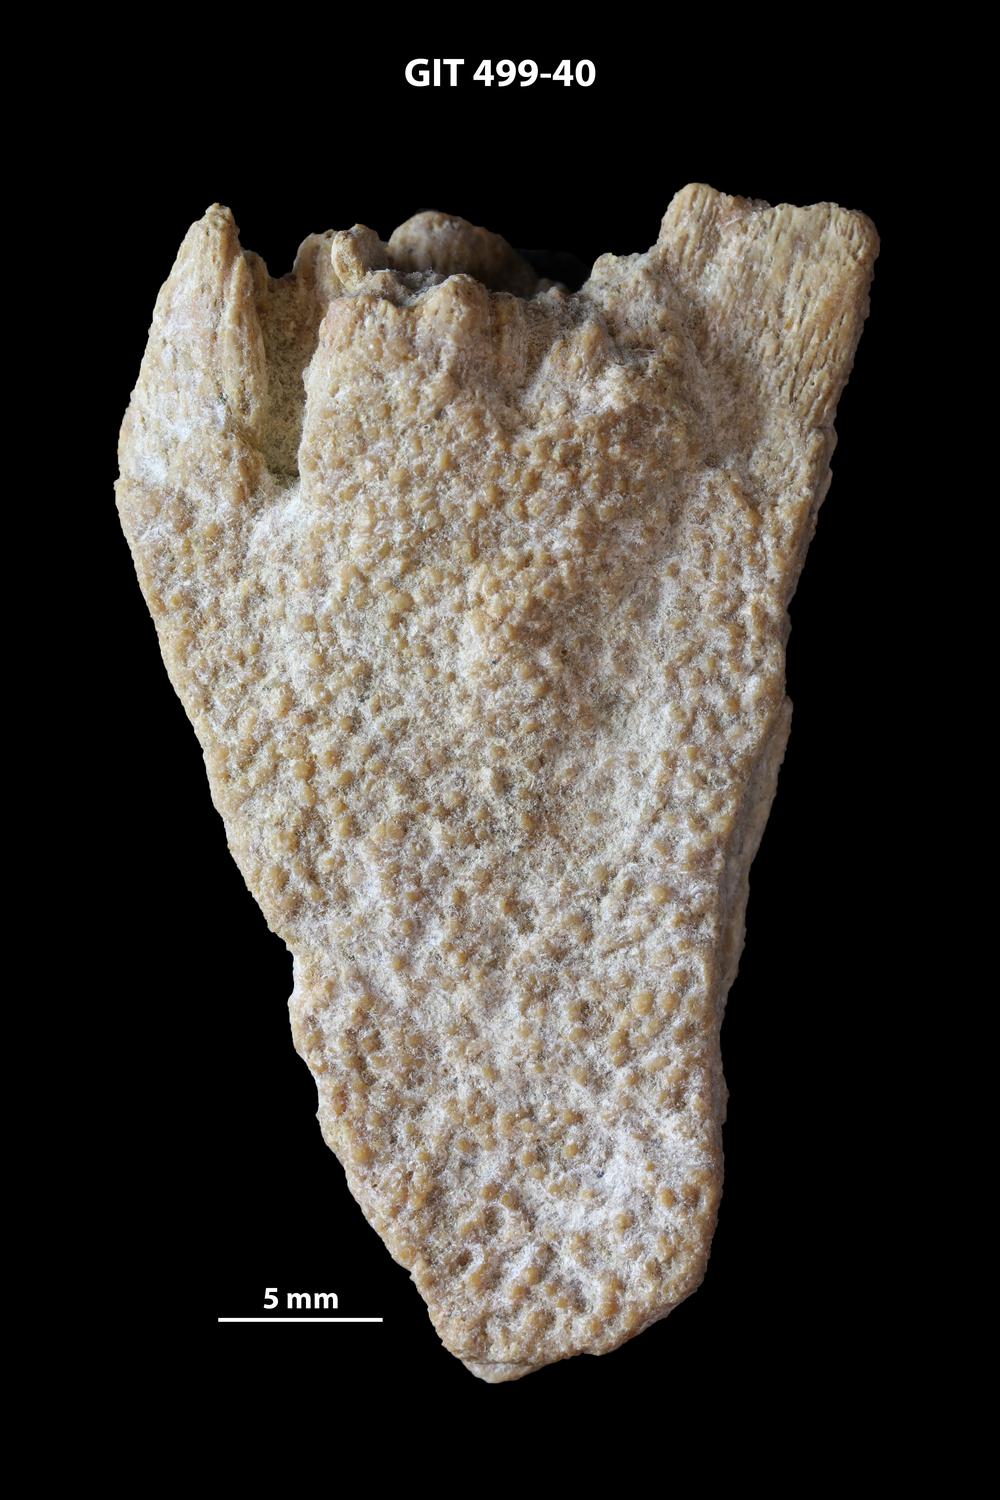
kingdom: Animalia
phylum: Chordata
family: Holoptychiidae
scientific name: Holoptychiidae
